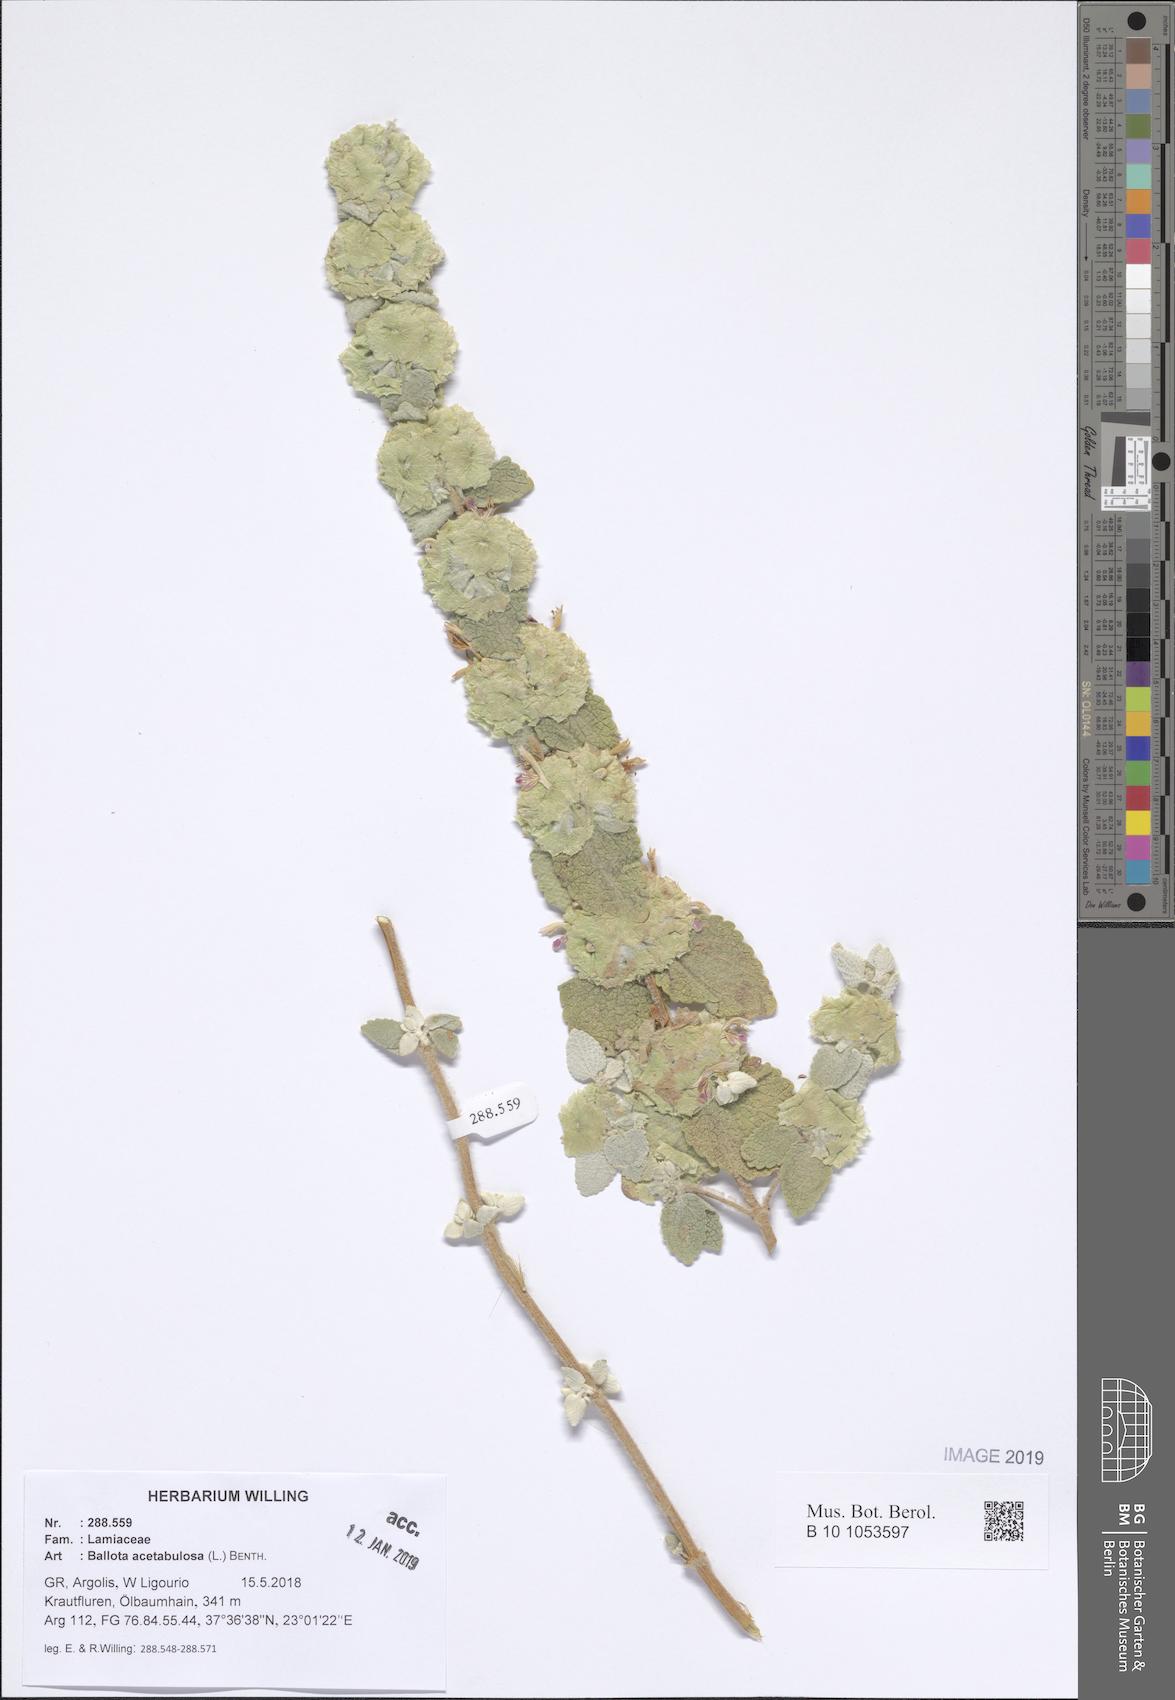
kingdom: Plantae
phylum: Tracheophyta
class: Magnoliopsida
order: Lamiales
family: Lamiaceae
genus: Pseudodictamnus
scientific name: Pseudodictamnus acetabulosus
